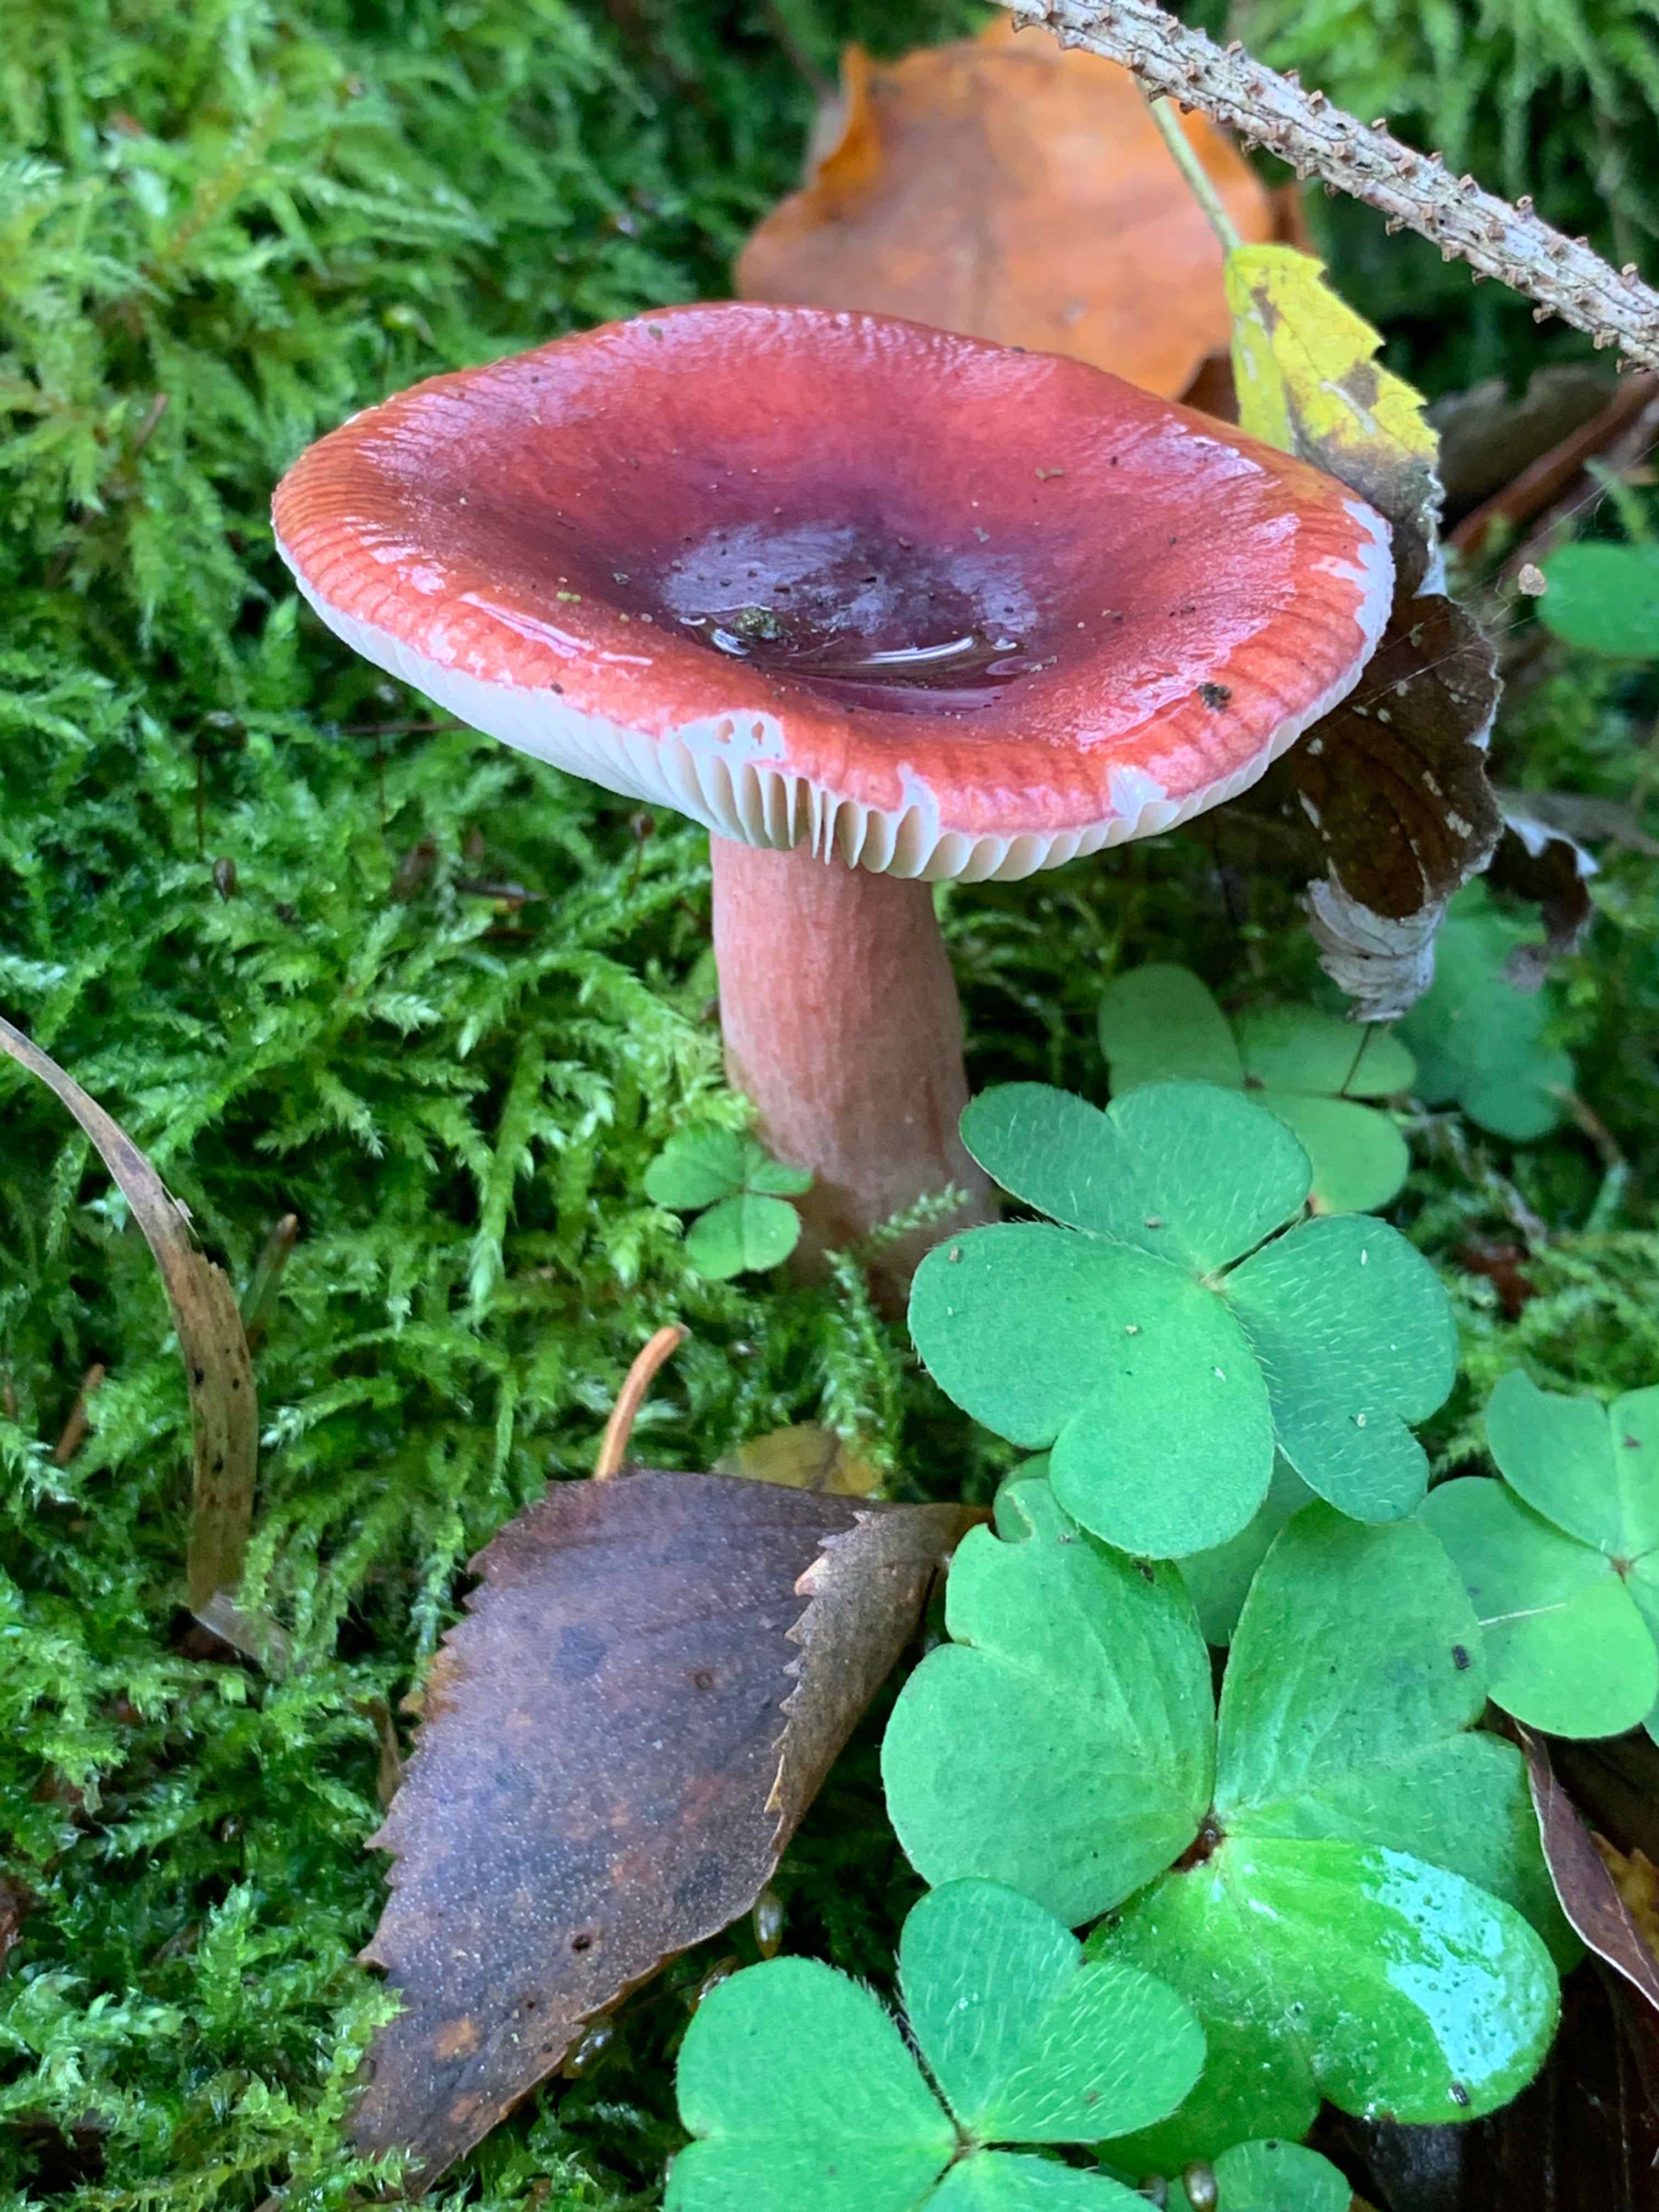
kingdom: Fungi
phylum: Basidiomycota
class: Agaricomycetes
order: Russulales
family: Russulaceae
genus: Russula
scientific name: Russula queletii
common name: Quélets skørhat
